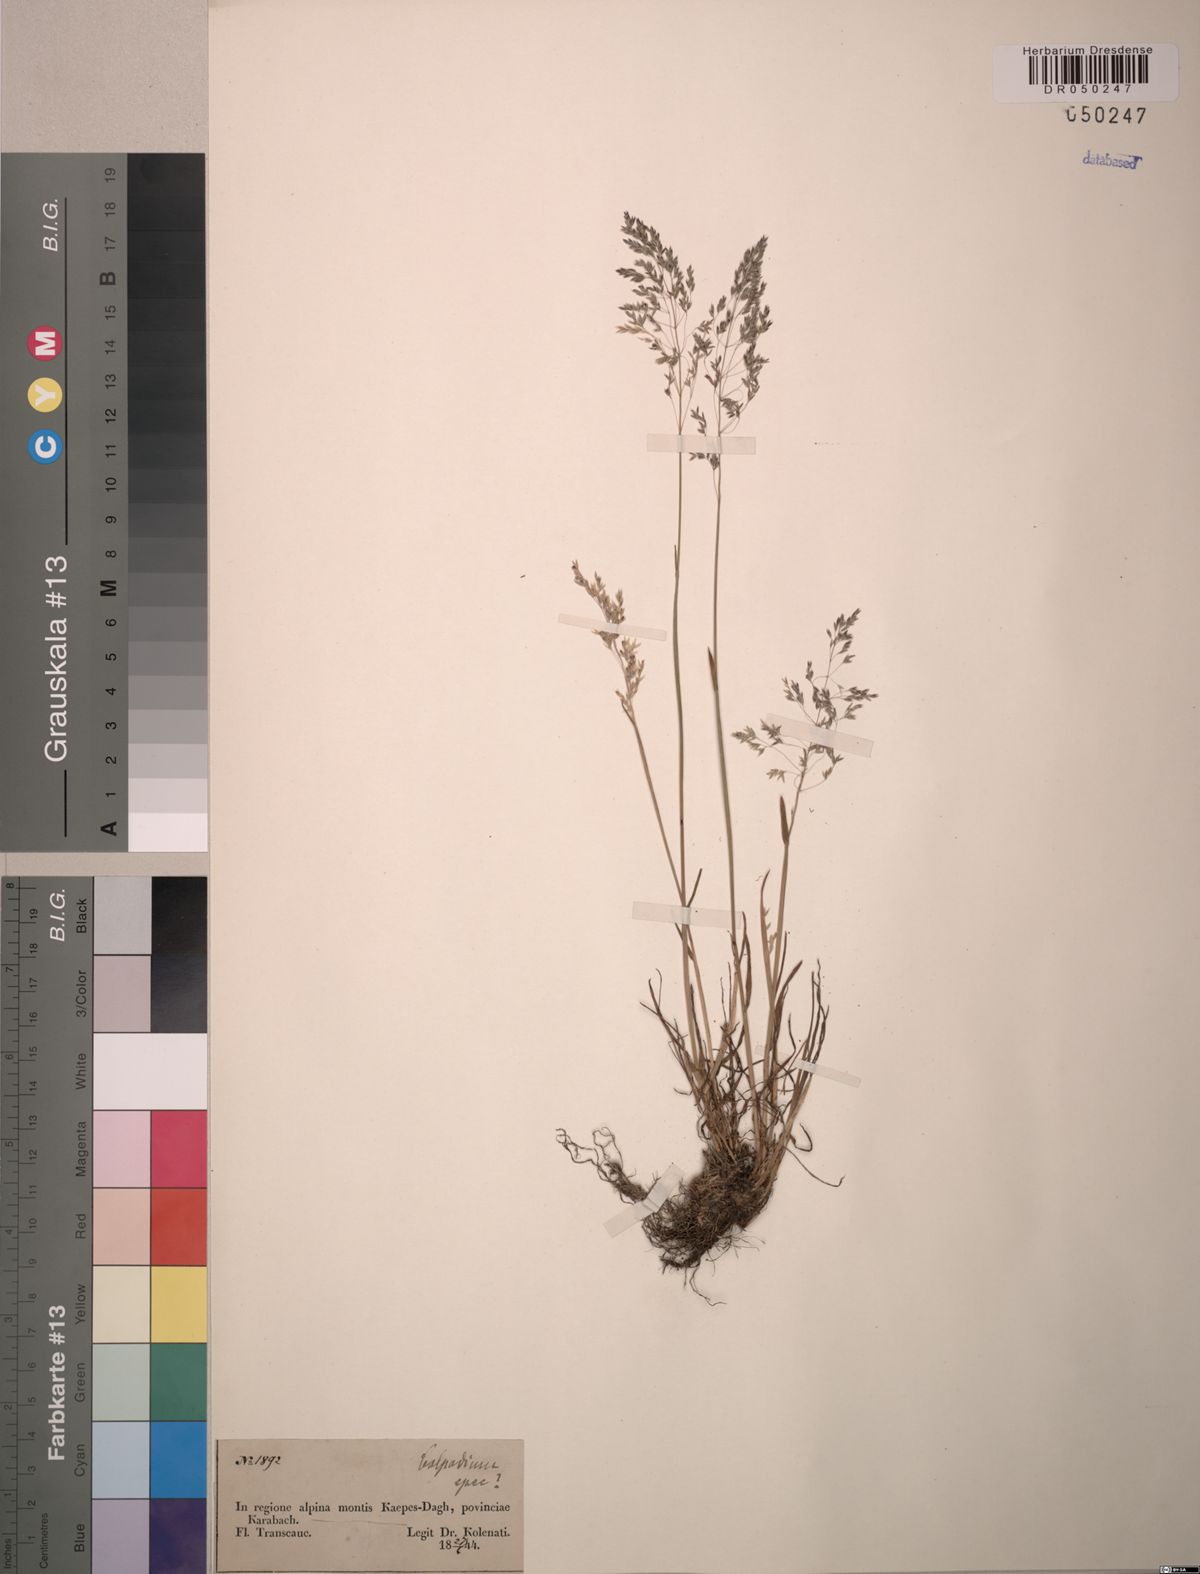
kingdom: Plantae
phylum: Tracheophyta
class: Liliopsida
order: Poales
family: Poaceae
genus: Colpodium
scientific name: Colpodium
